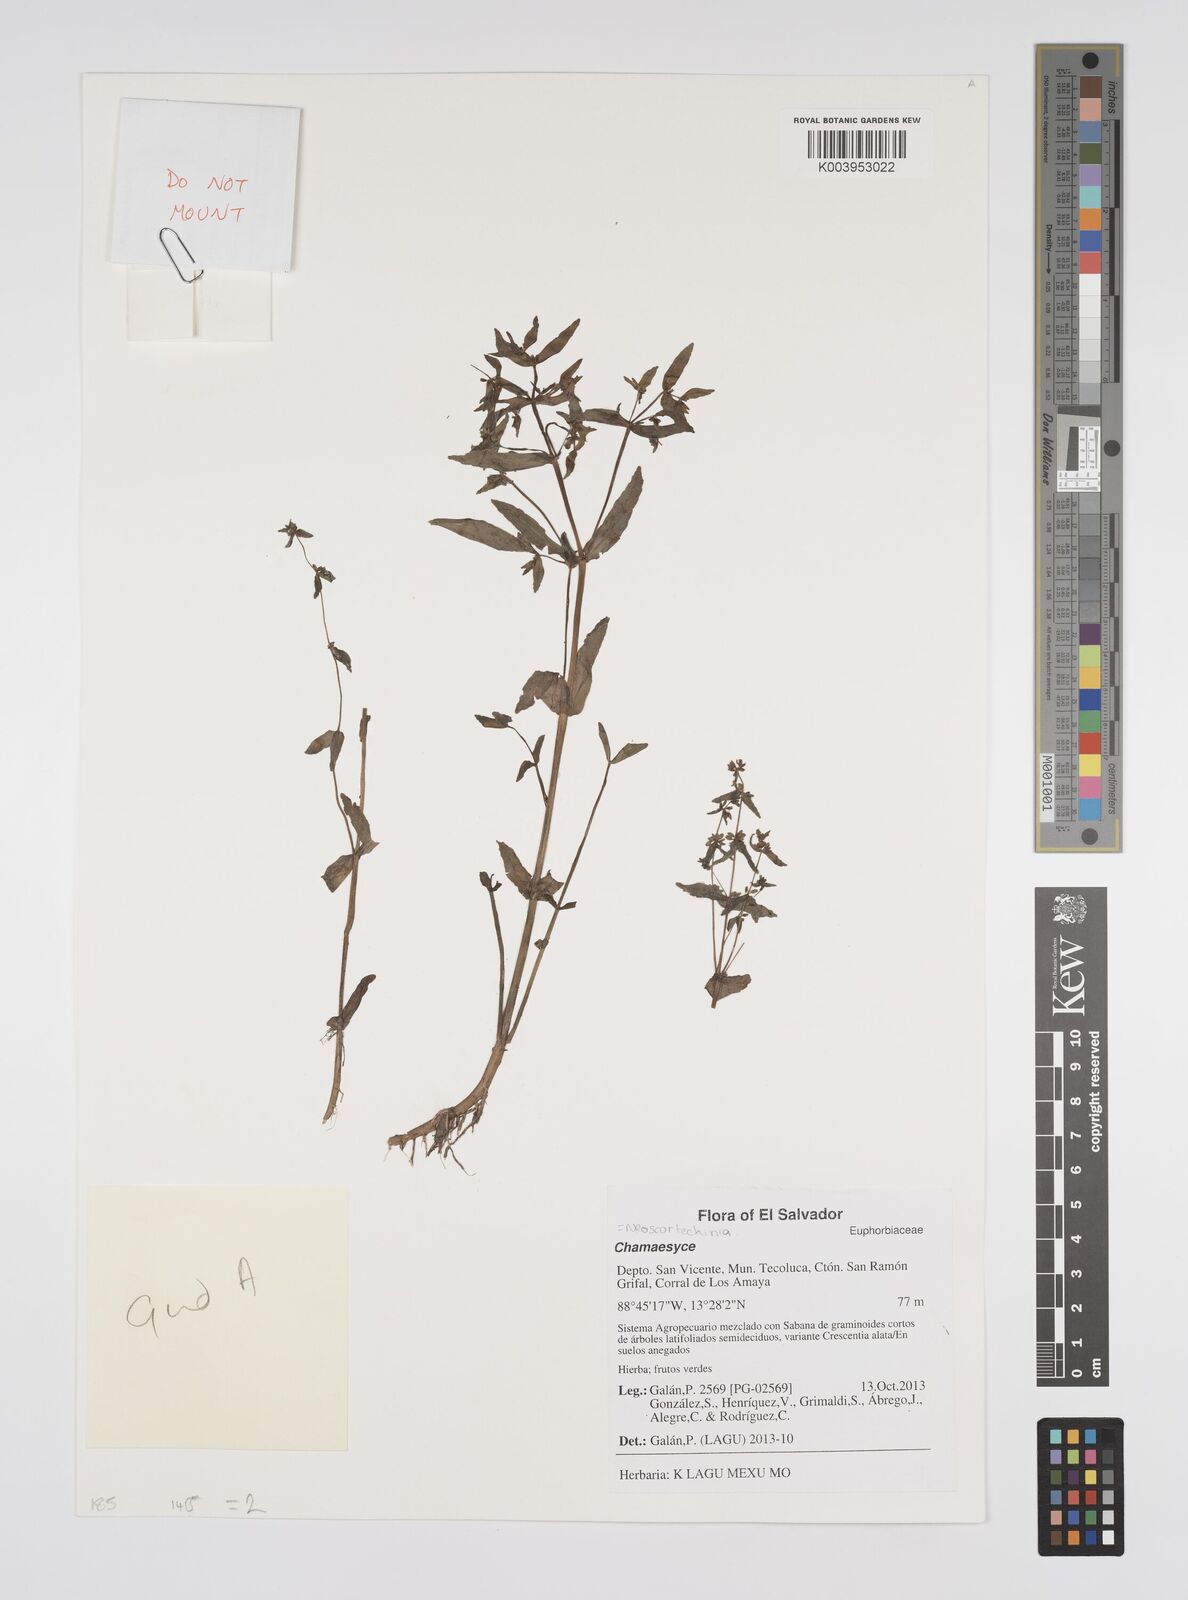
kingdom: Plantae
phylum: Tracheophyta
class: Magnoliopsida
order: Malpighiales
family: Euphorbiaceae
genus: Neoscortechinia
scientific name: Neoscortechinia
